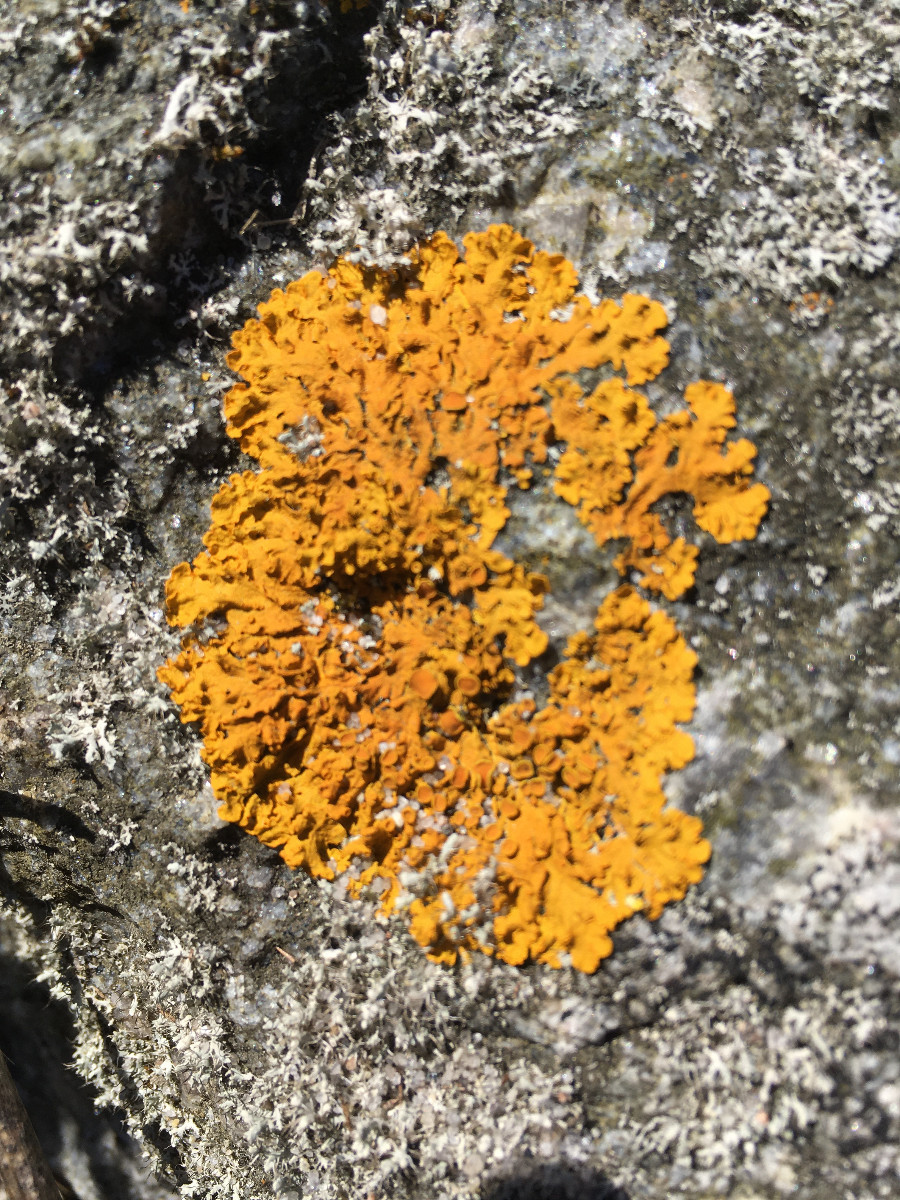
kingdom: Fungi
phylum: Ascomycota
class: Lecanoromycetes
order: Teloschistales
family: Teloschistaceae
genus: Xanthoria
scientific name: Xanthoria aureola
